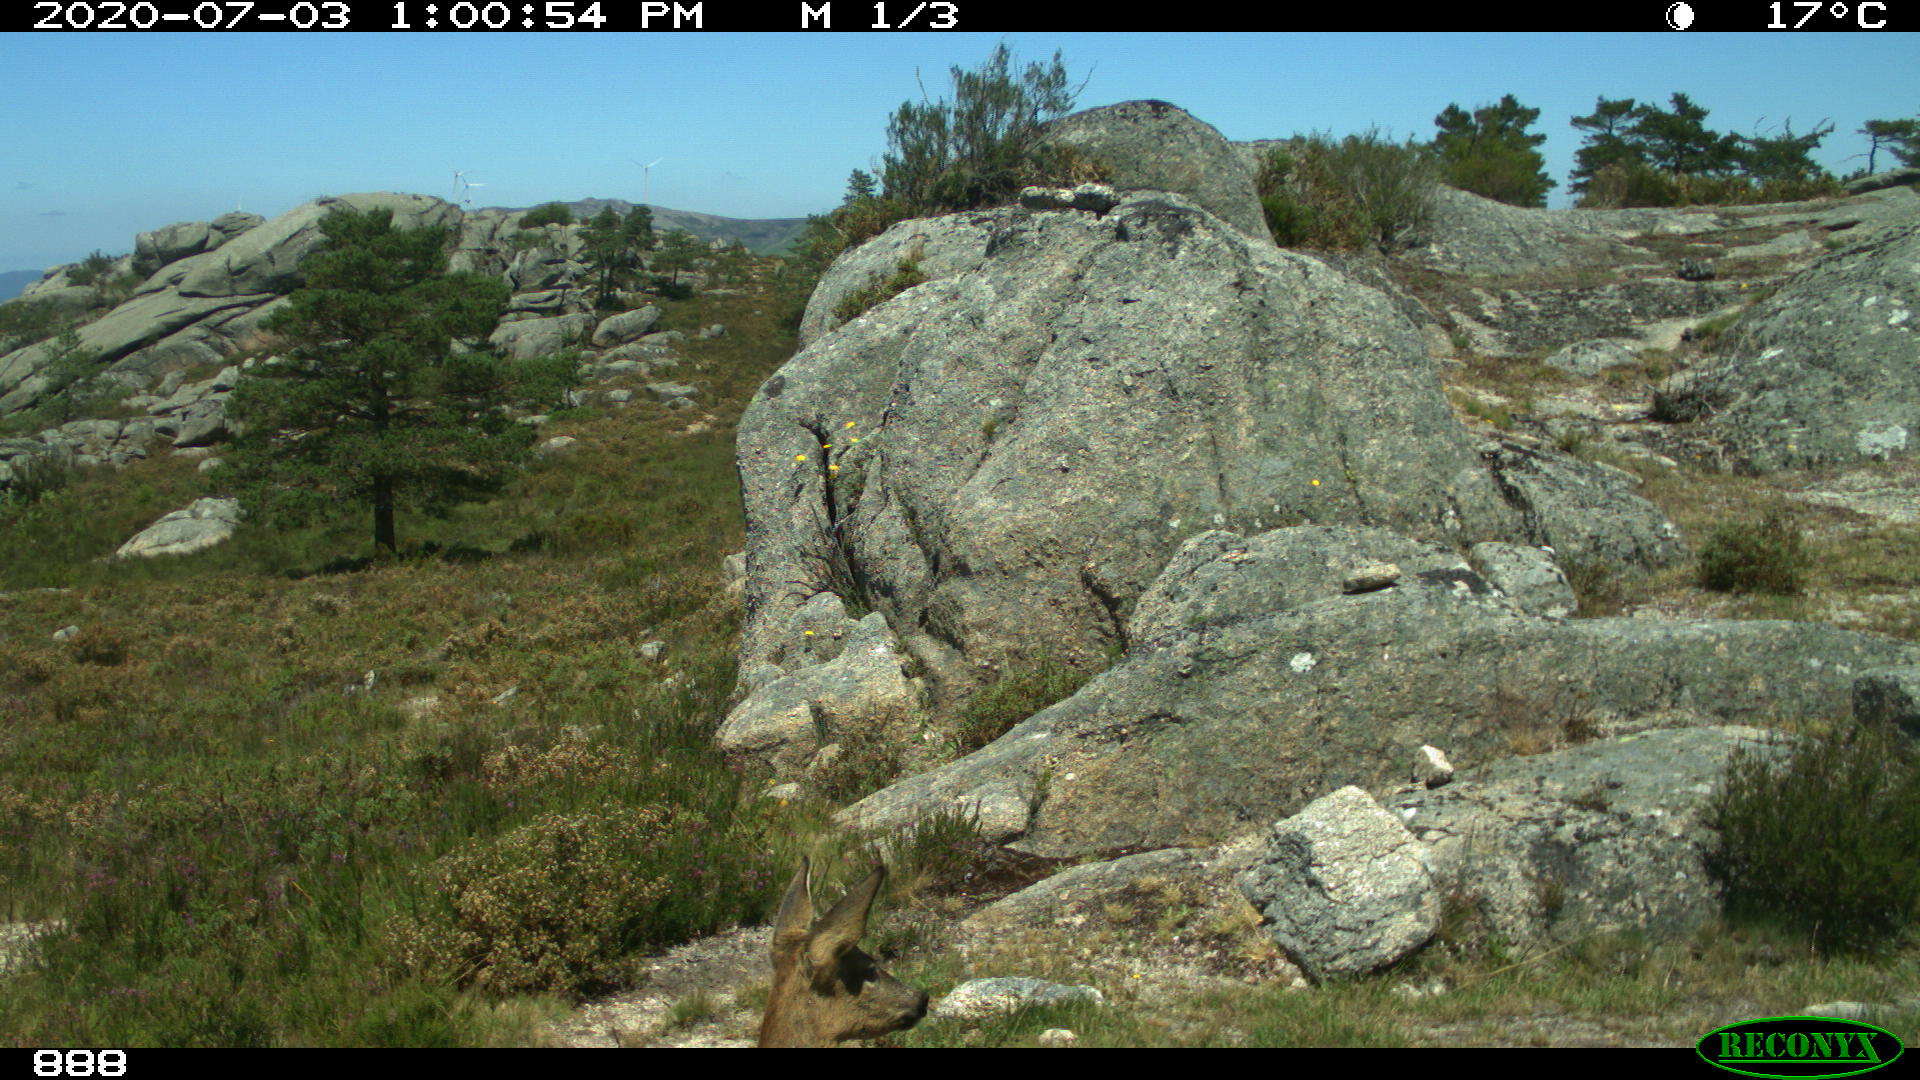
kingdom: Animalia
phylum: Chordata
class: Mammalia
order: Artiodactyla
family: Cervidae
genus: Capreolus
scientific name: Capreolus capreolus
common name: Western roe deer
